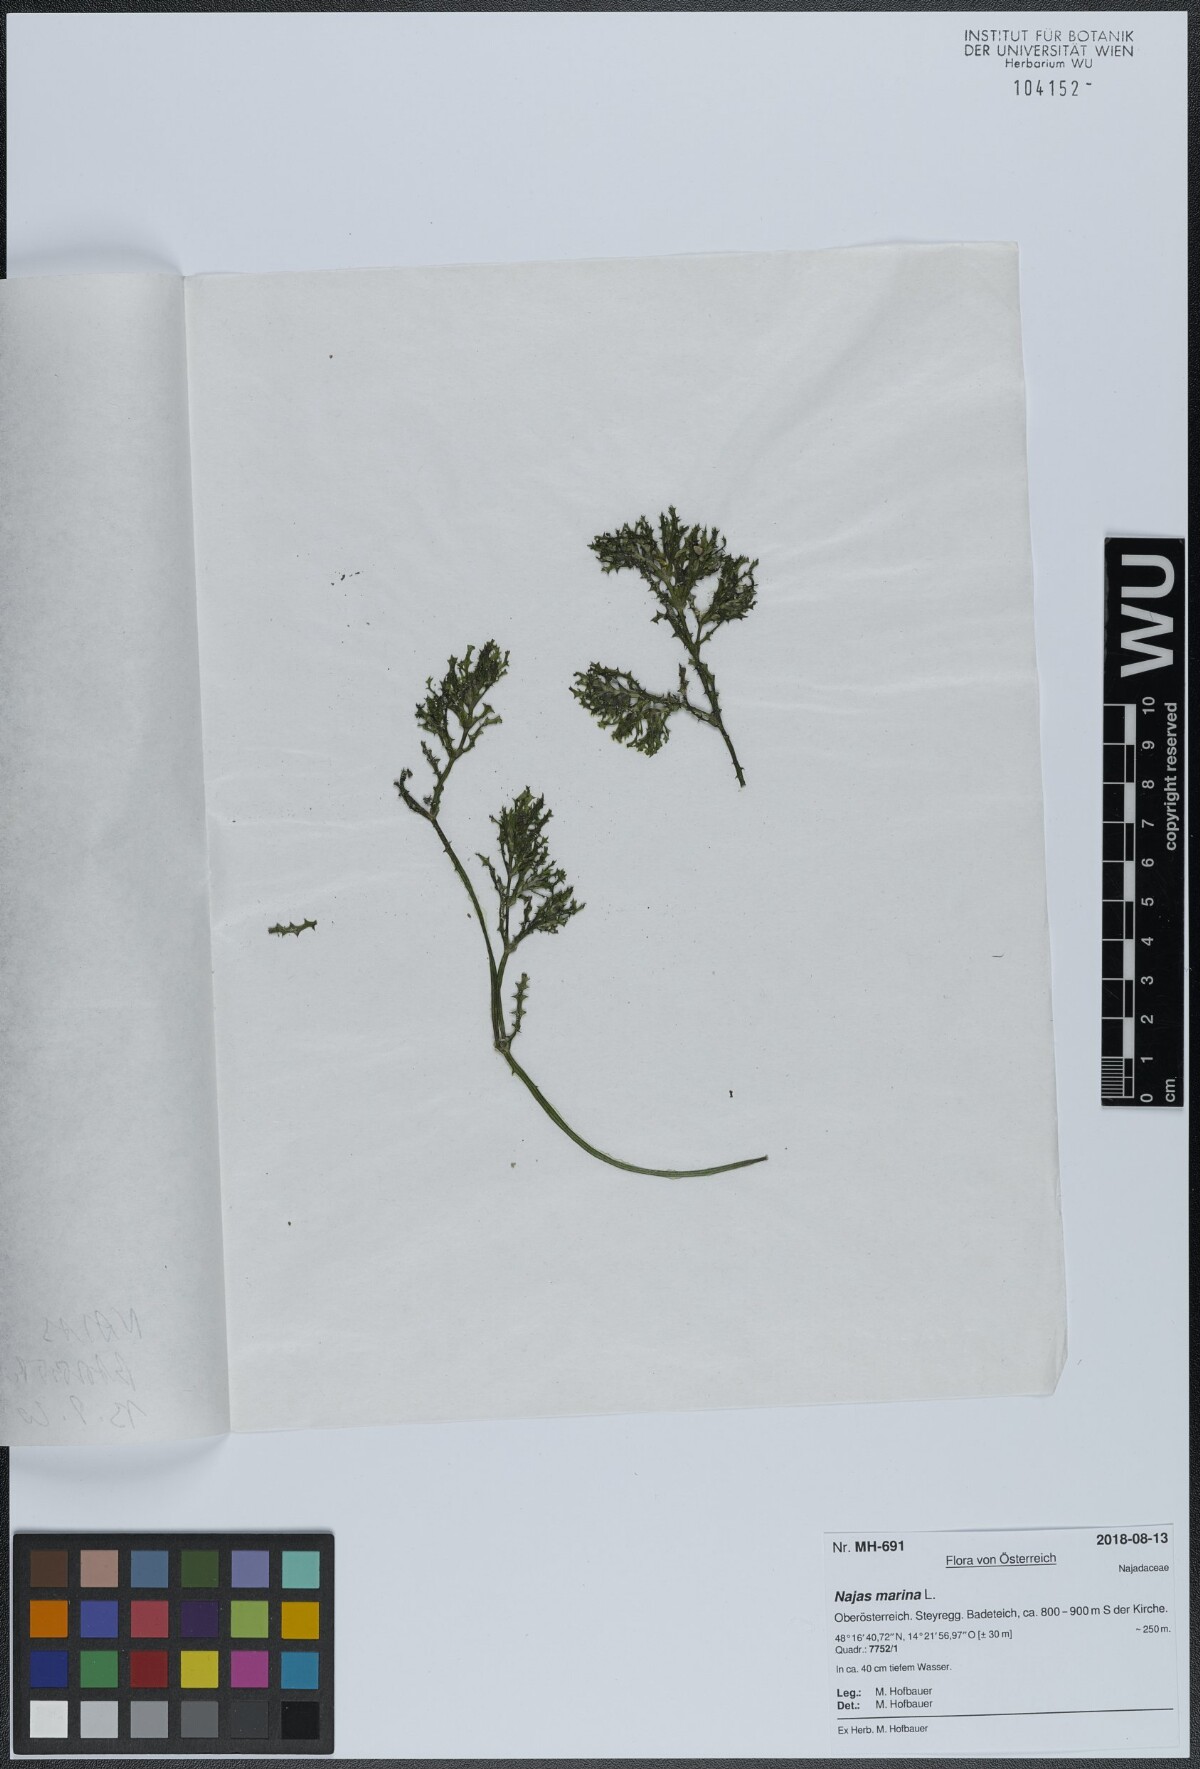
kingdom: Plantae
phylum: Tracheophyta
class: Liliopsida
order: Alismatales
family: Hydrocharitaceae
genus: Najas
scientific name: Najas marina
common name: Holly-leaved naiad
